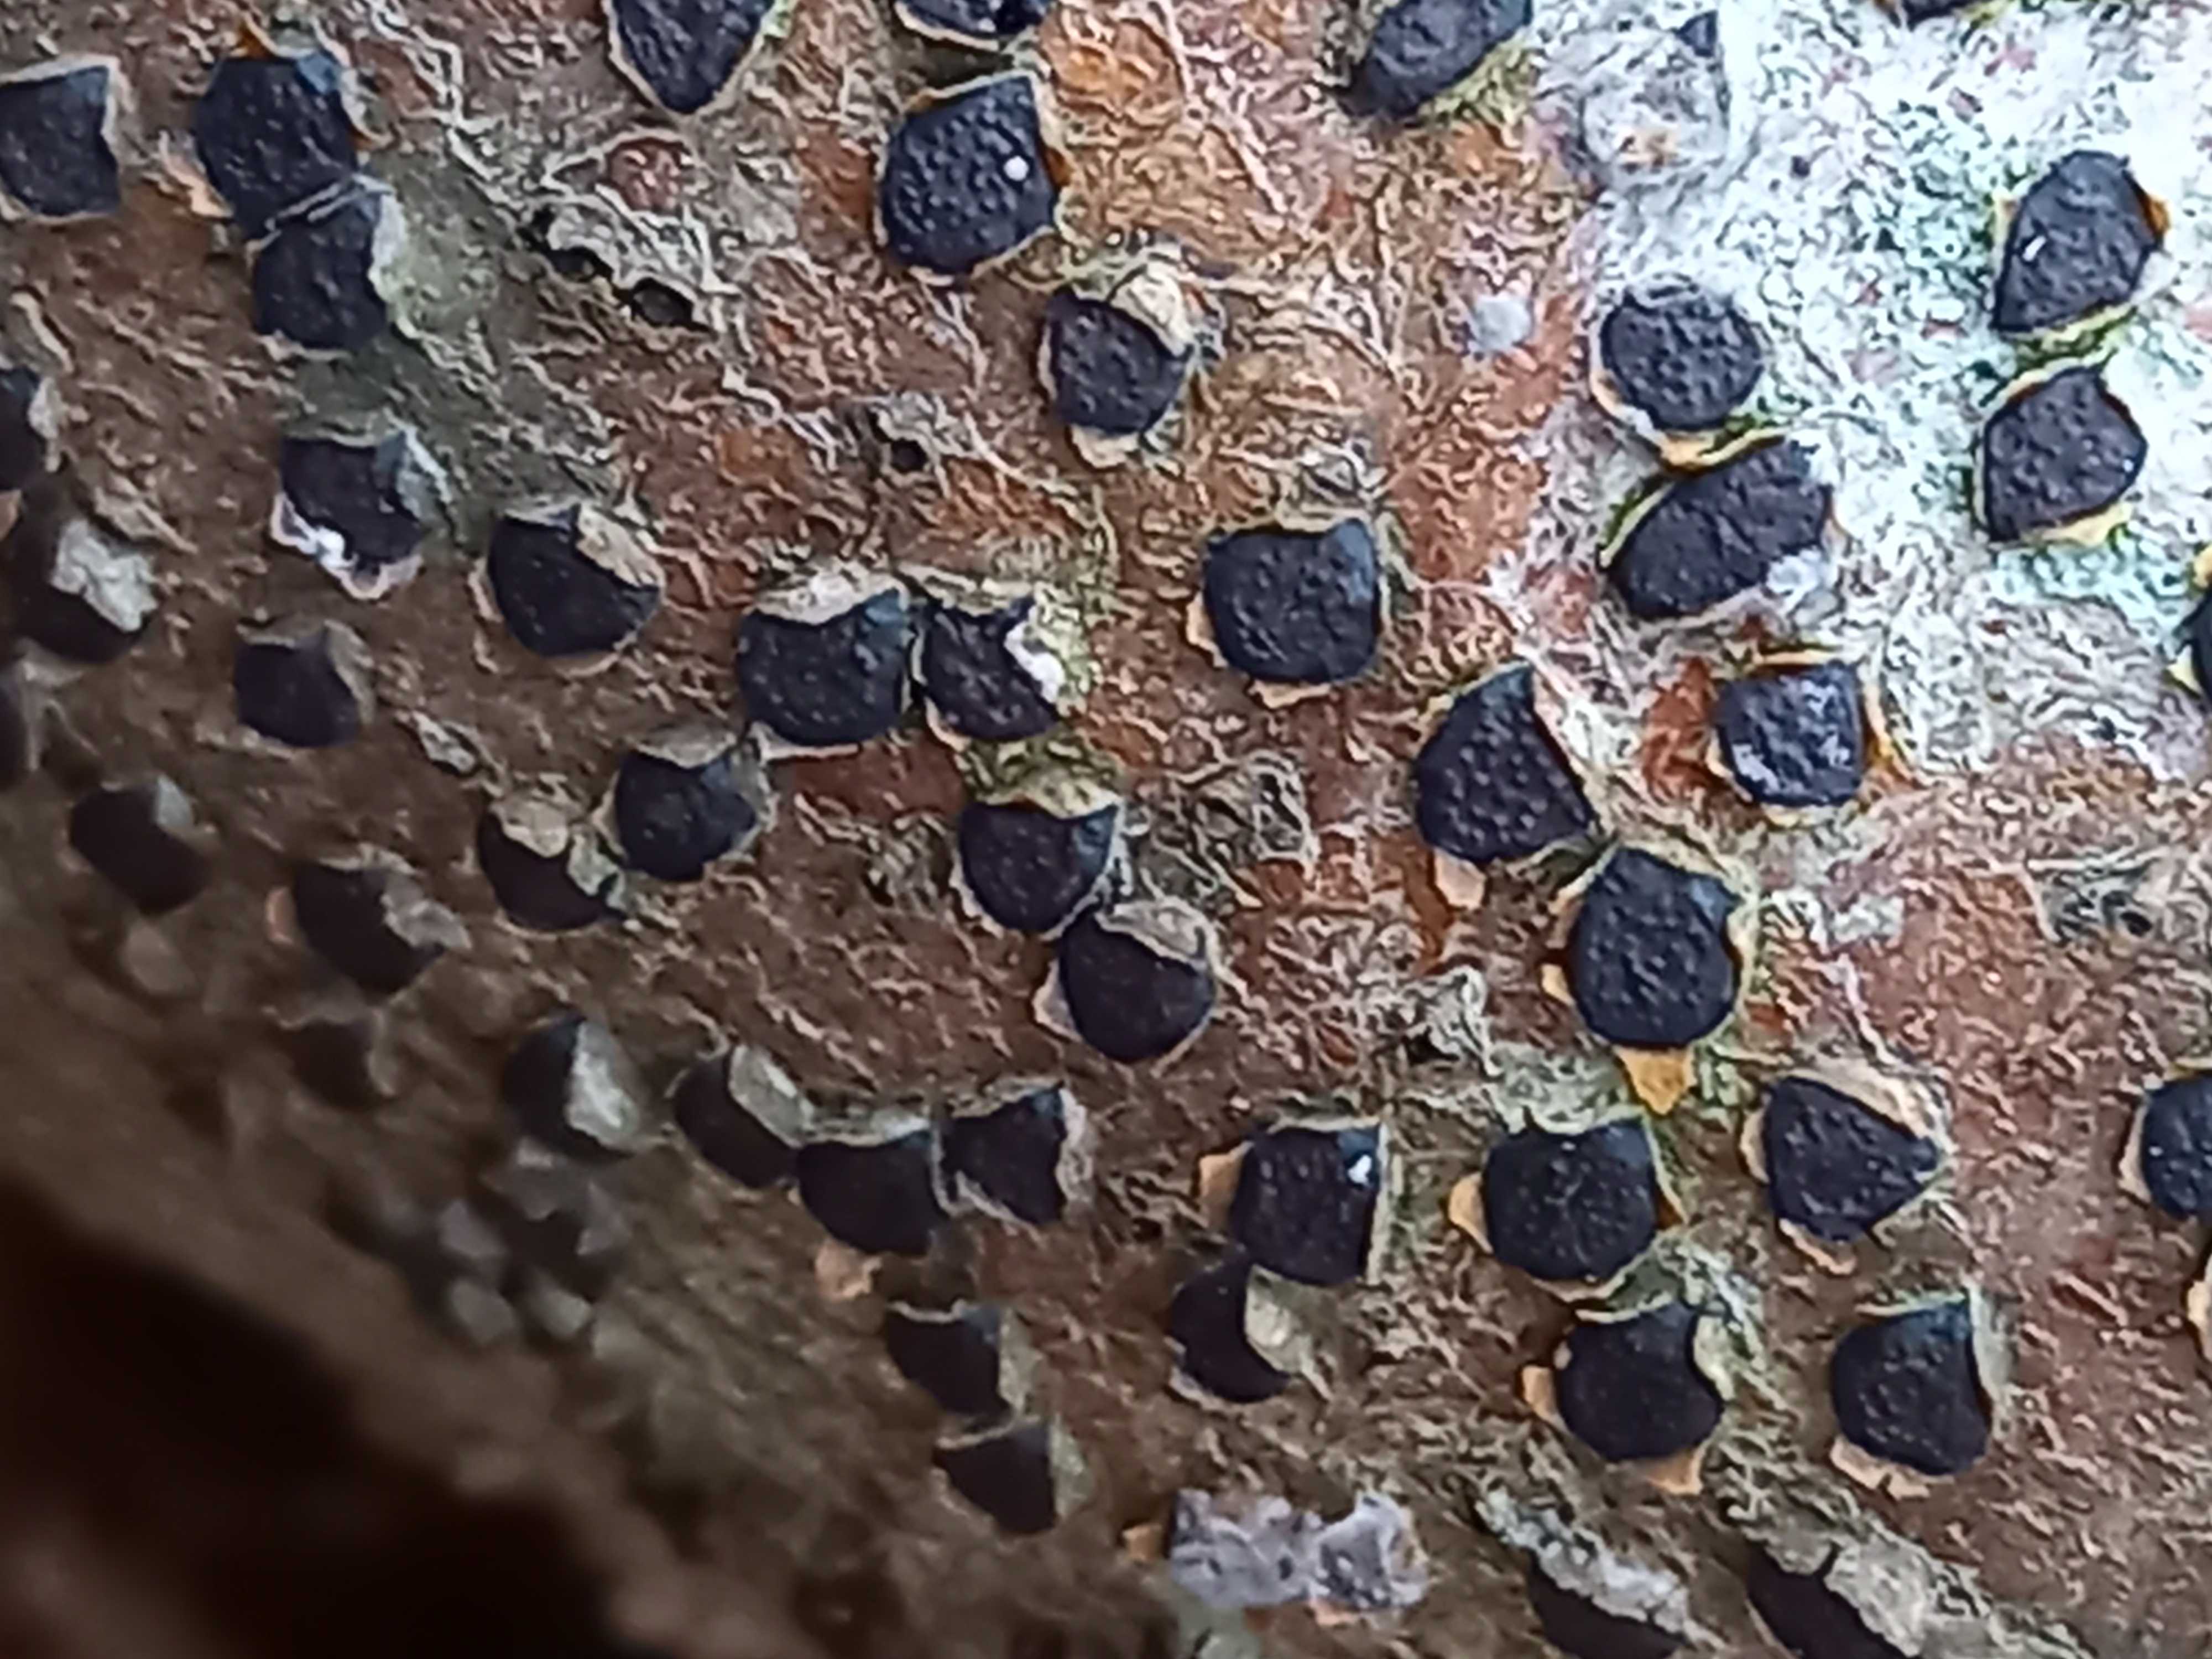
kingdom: Fungi
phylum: Ascomycota
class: Sordariomycetes
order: Xylariales
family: Diatrypaceae
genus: Diatrype
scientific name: Diatrype disciformis
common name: kant-kulskorpe
